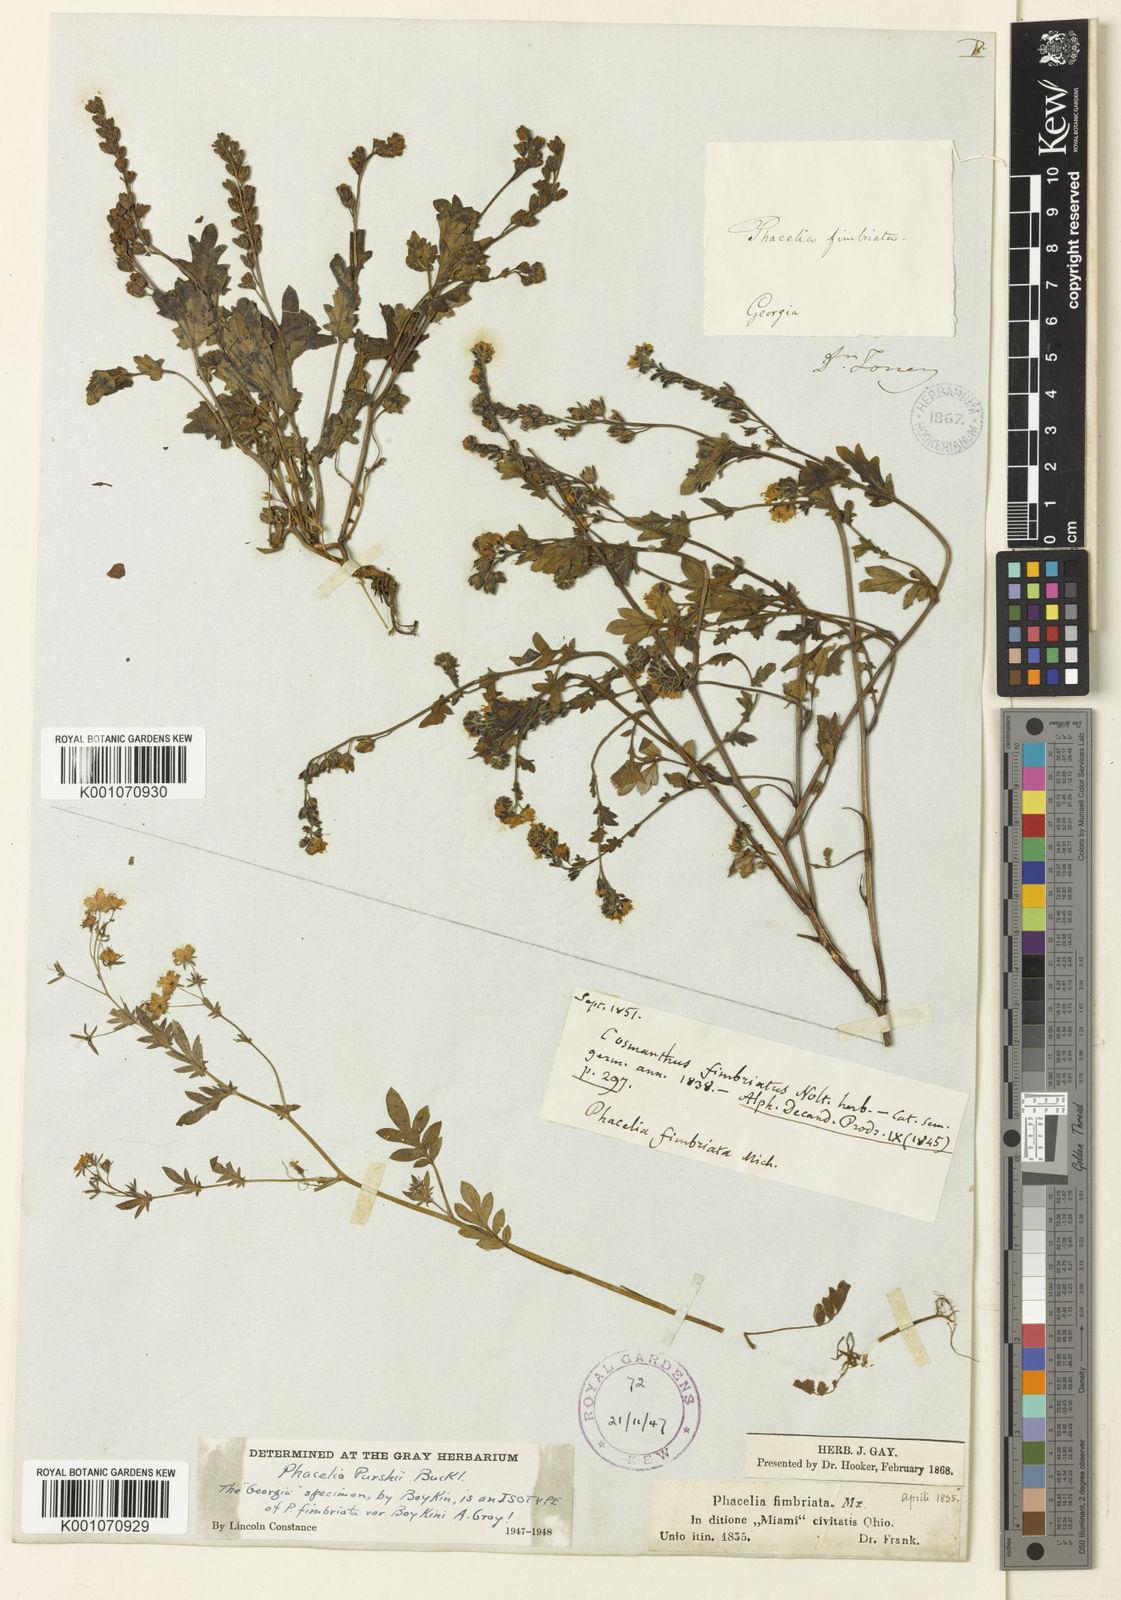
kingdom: Plantae
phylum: Tracheophyta
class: Magnoliopsida
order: Boraginales
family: Hydrophyllaceae
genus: Phacelia
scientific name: Phacelia purshii
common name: Miami-mist
